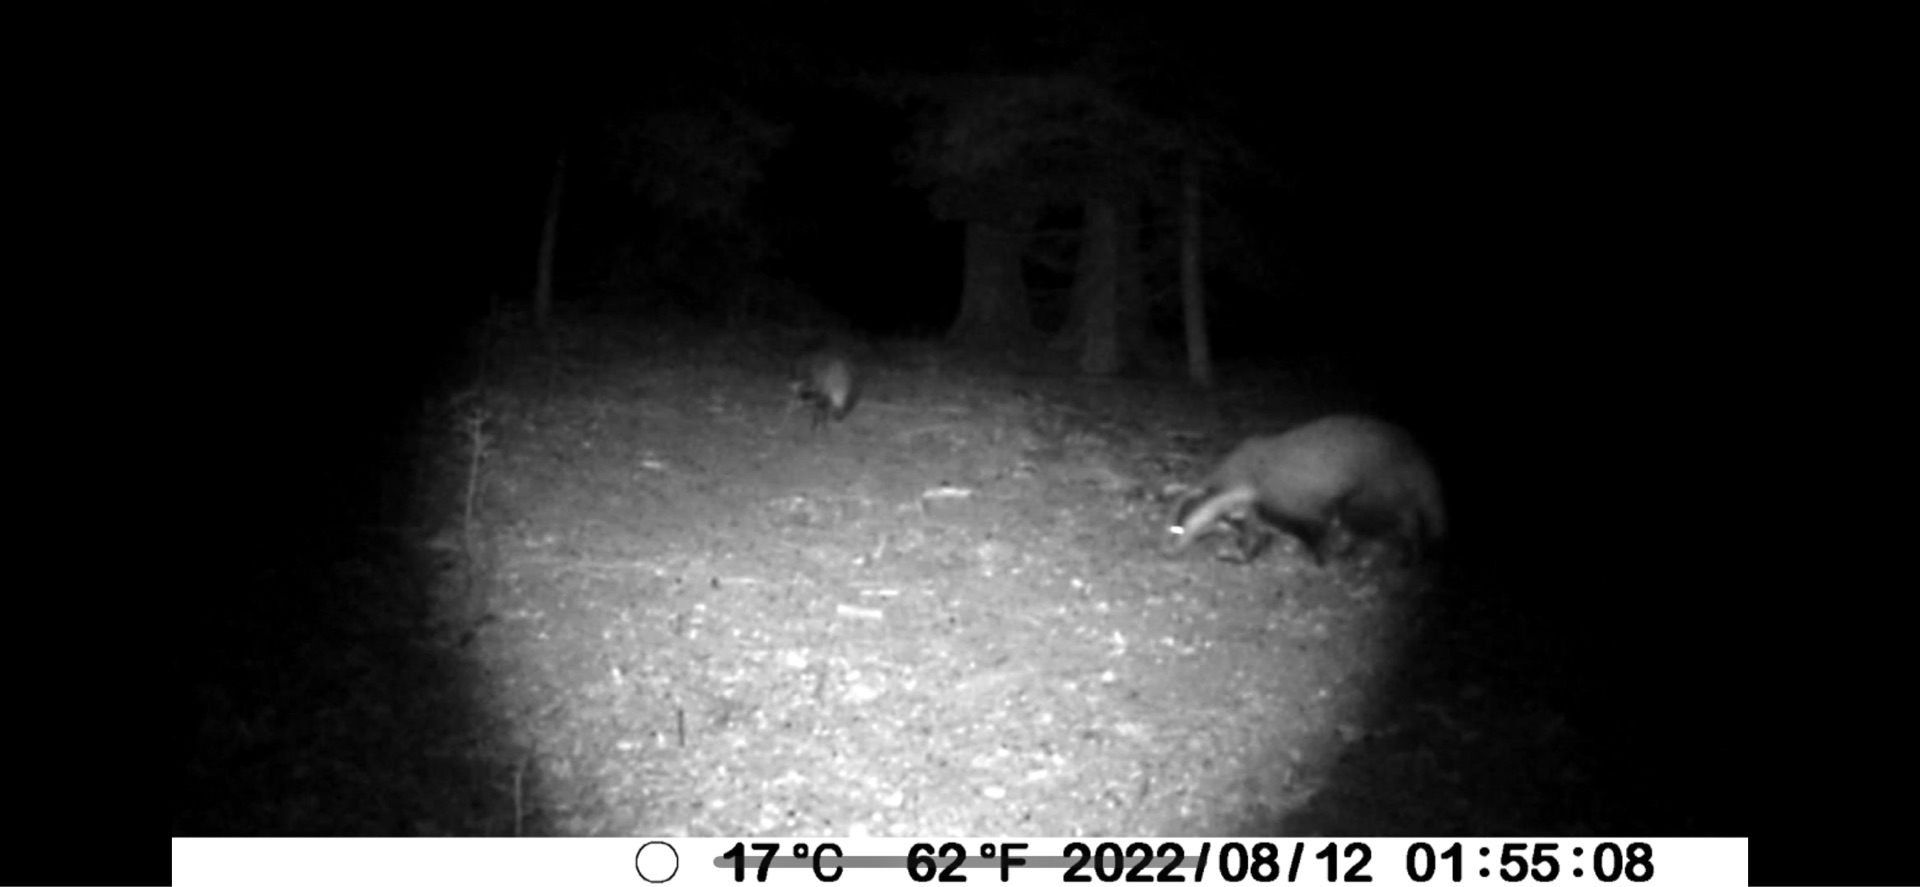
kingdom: Animalia
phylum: Chordata
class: Mammalia
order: Carnivora
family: Mustelidae
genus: Meles
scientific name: Meles meles
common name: Grævling
